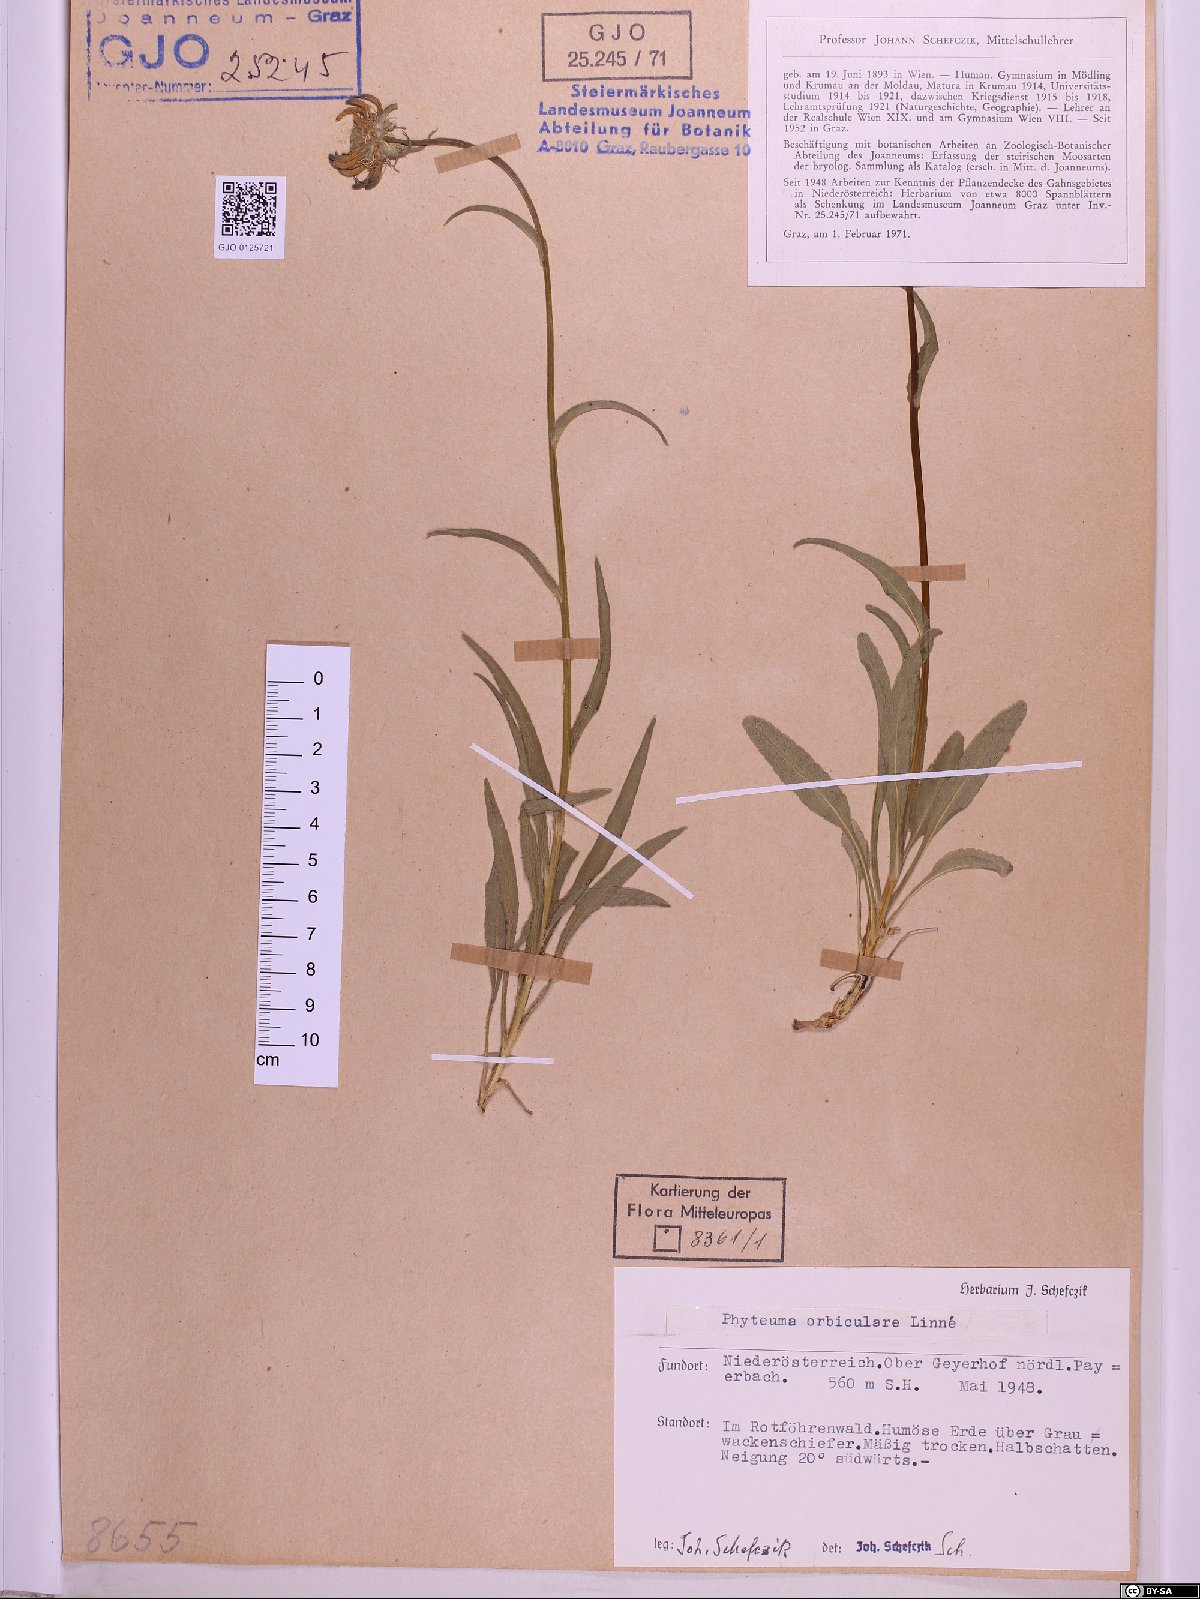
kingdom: Plantae
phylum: Tracheophyta
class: Magnoliopsida
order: Asterales
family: Campanulaceae
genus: Phyteuma
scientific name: Phyteuma orbiculare
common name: Round-headed rampion
